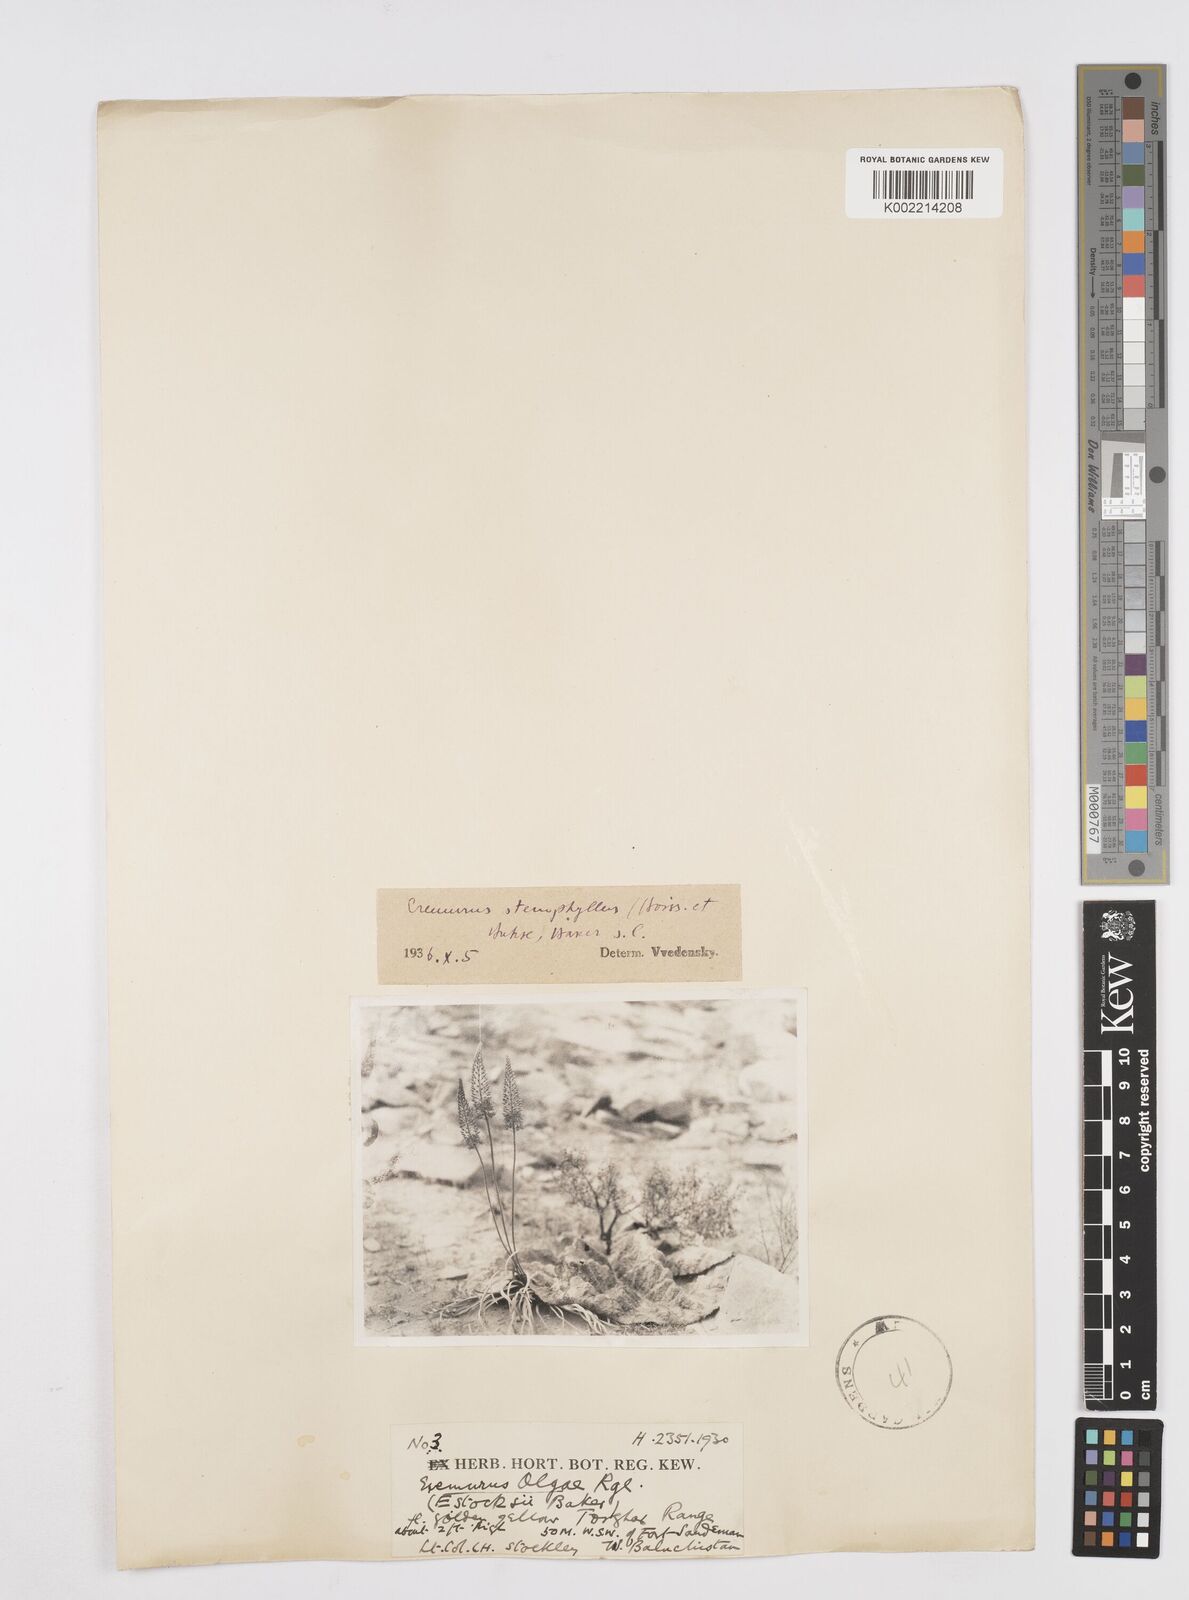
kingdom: Plantae
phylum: Tracheophyta
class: Liliopsida
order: Asparagales
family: Asphodelaceae
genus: Eremurus
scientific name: Eremurus stenophyllus
